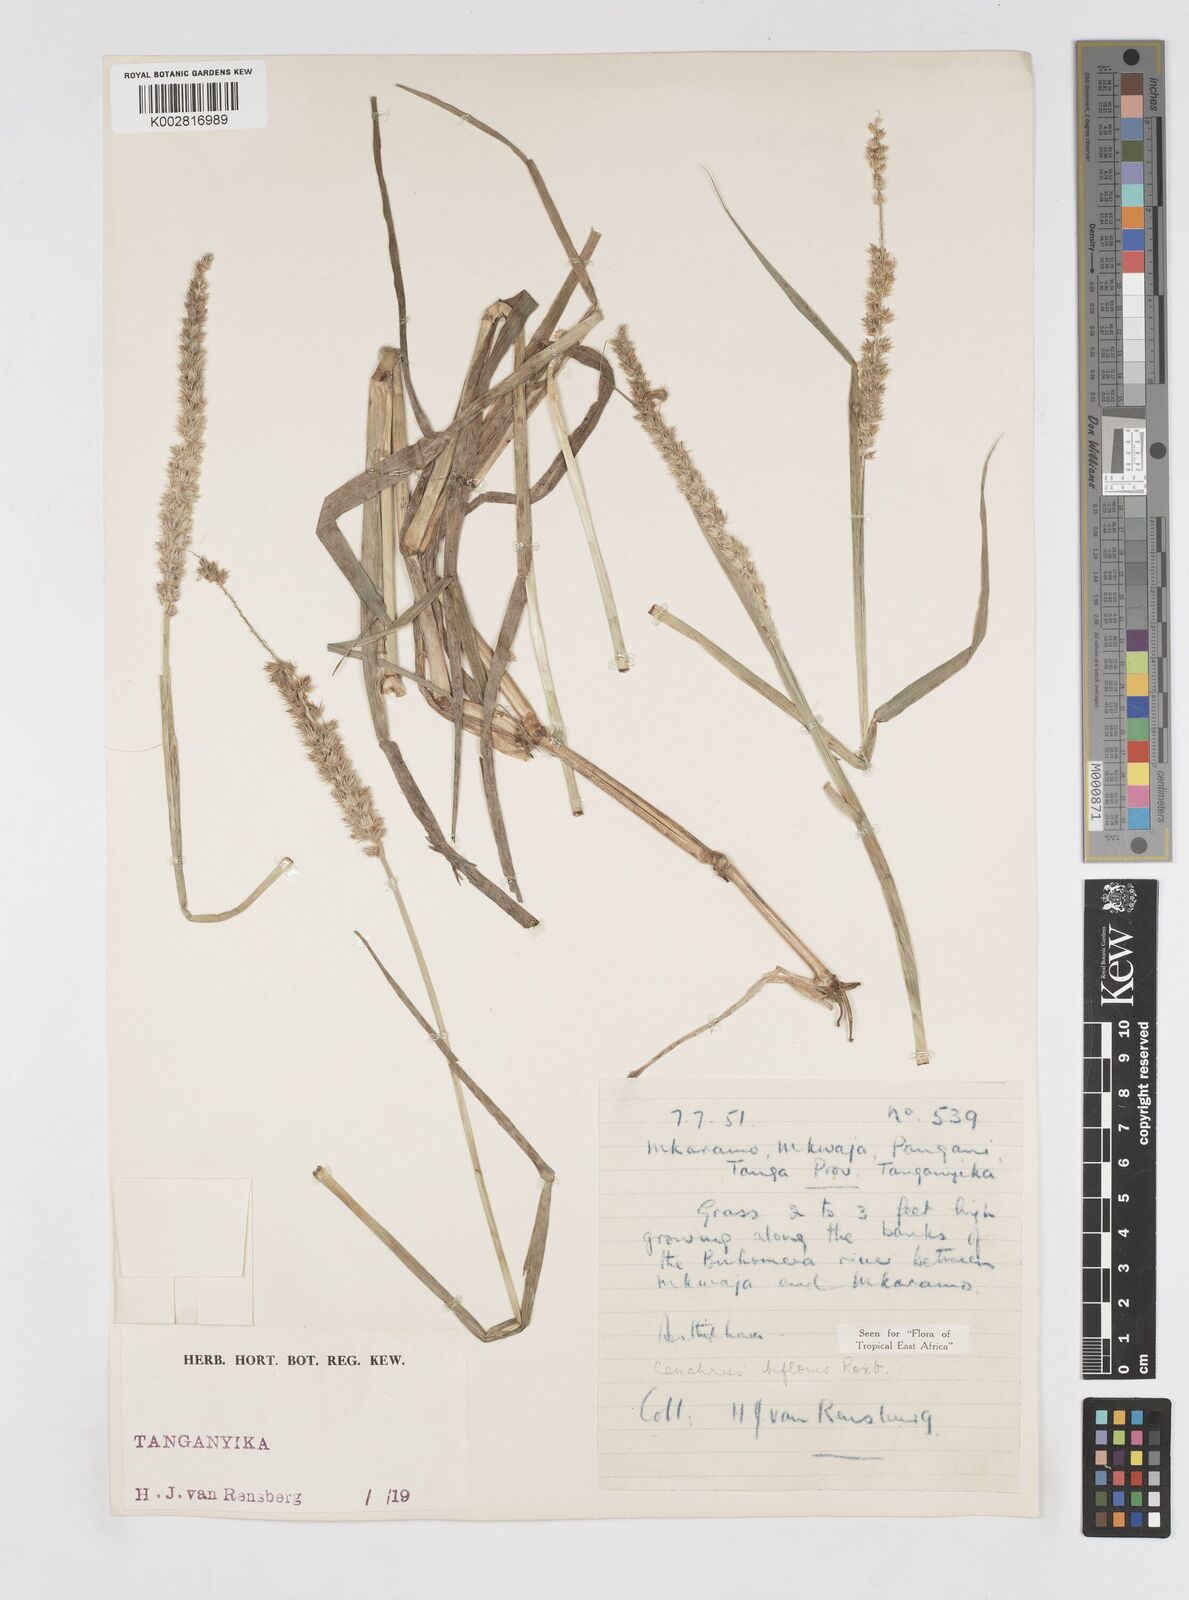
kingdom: Plantae
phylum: Tracheophyta
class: Liliopsida
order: Poales
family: Poaceae
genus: Cenchrus
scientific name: Cenchrus biflorus
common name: Indian sandbur
